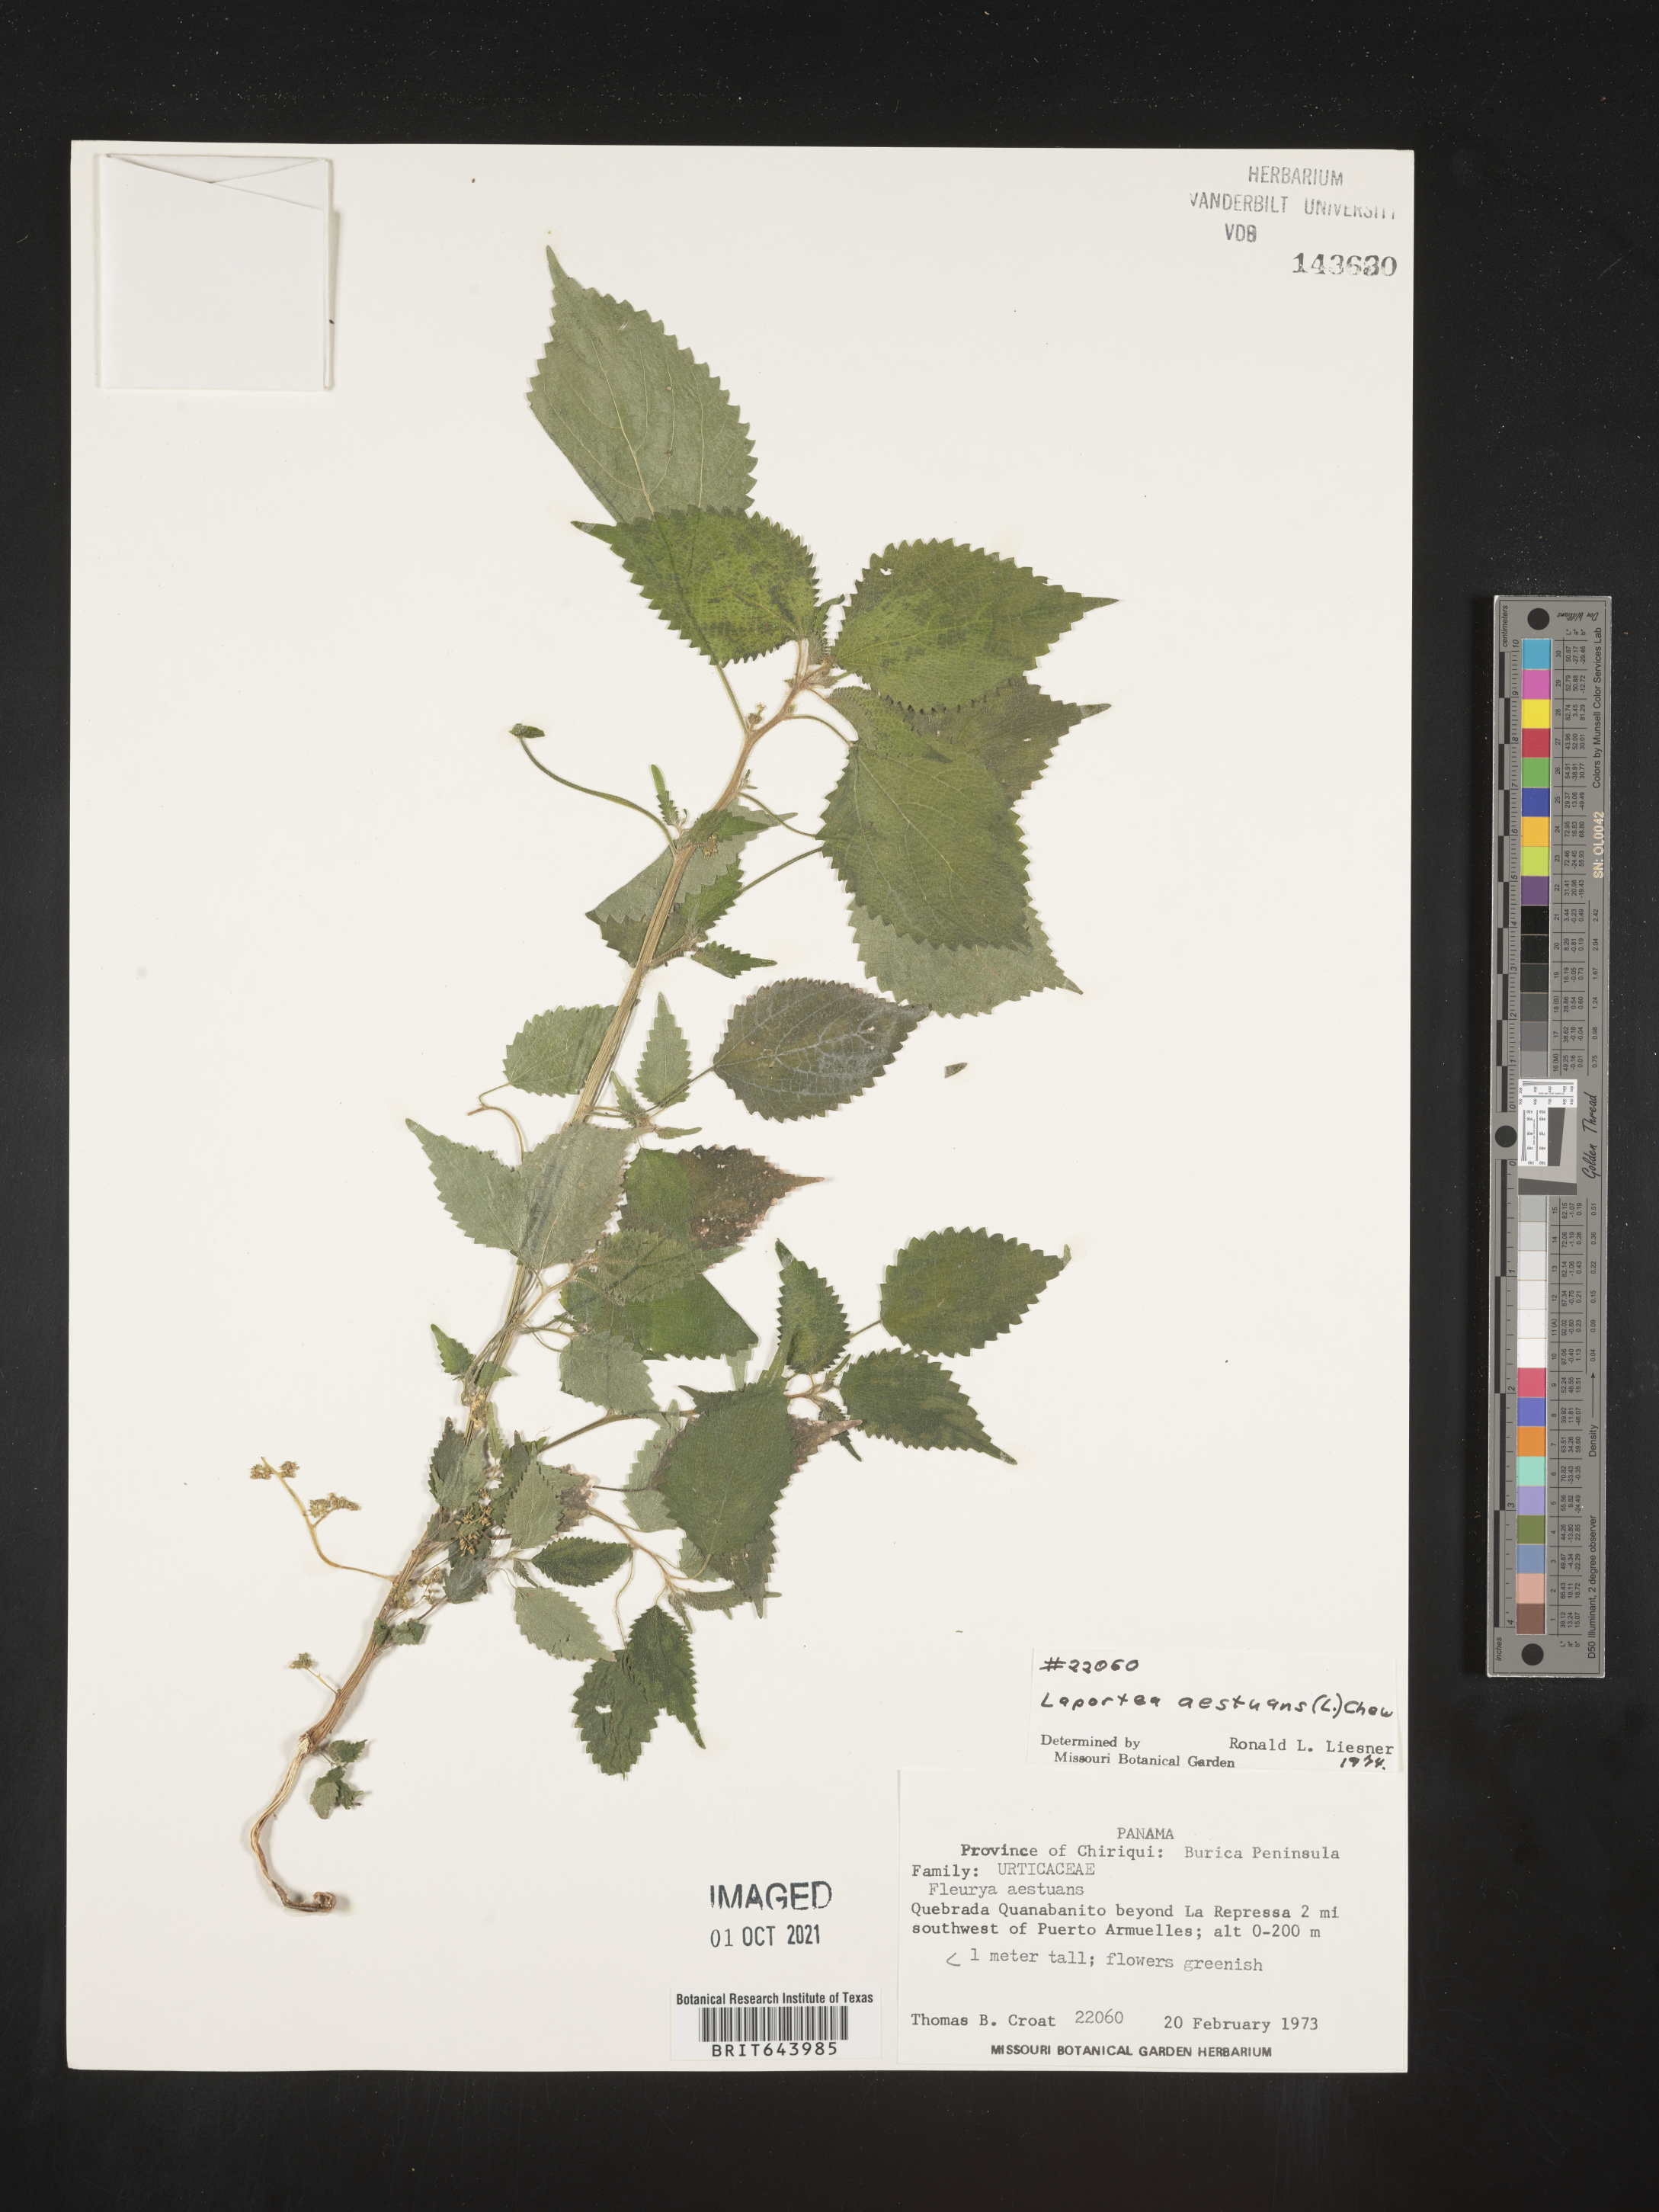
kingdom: Plantae
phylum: Tracheophyta
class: Magnoliopsida
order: Rosales
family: Urticaceae
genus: Laportea
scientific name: Laportea
